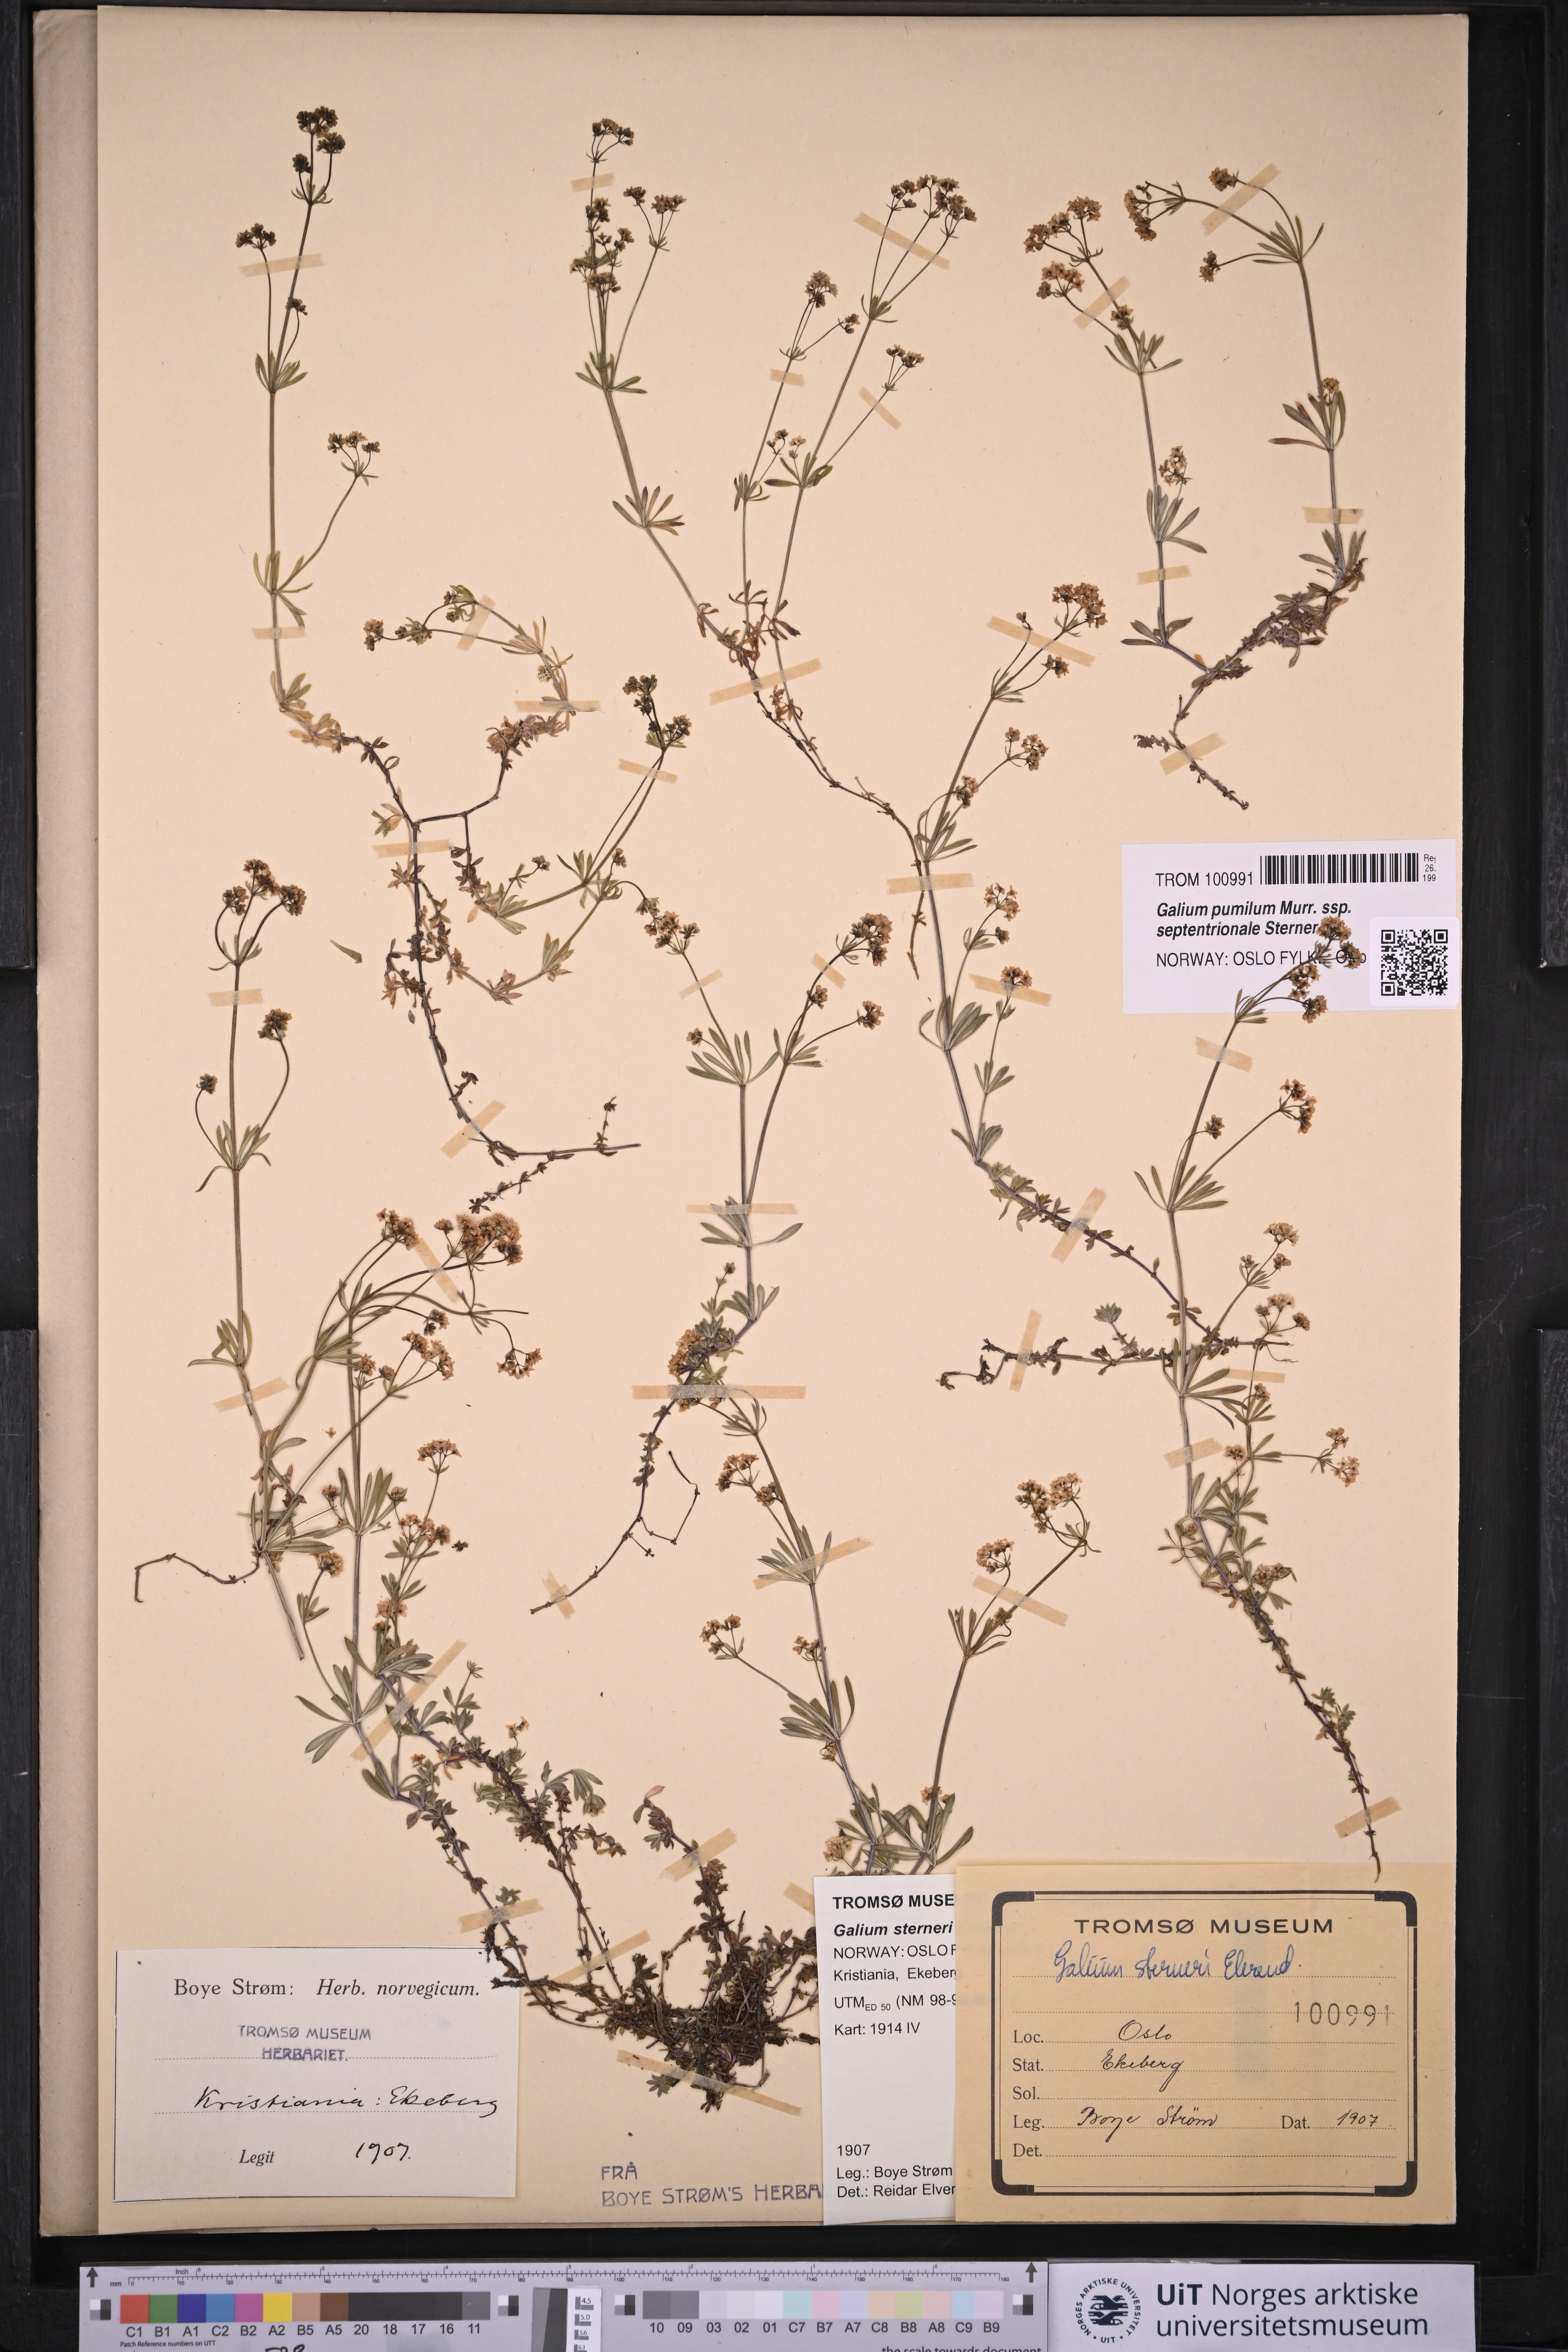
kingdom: Plantae
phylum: Tracheophyta
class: Magnoliopsida
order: Gentianales
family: Rubiaceae
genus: Galium
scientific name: Galium sterneri
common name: Limestone bedstraw
